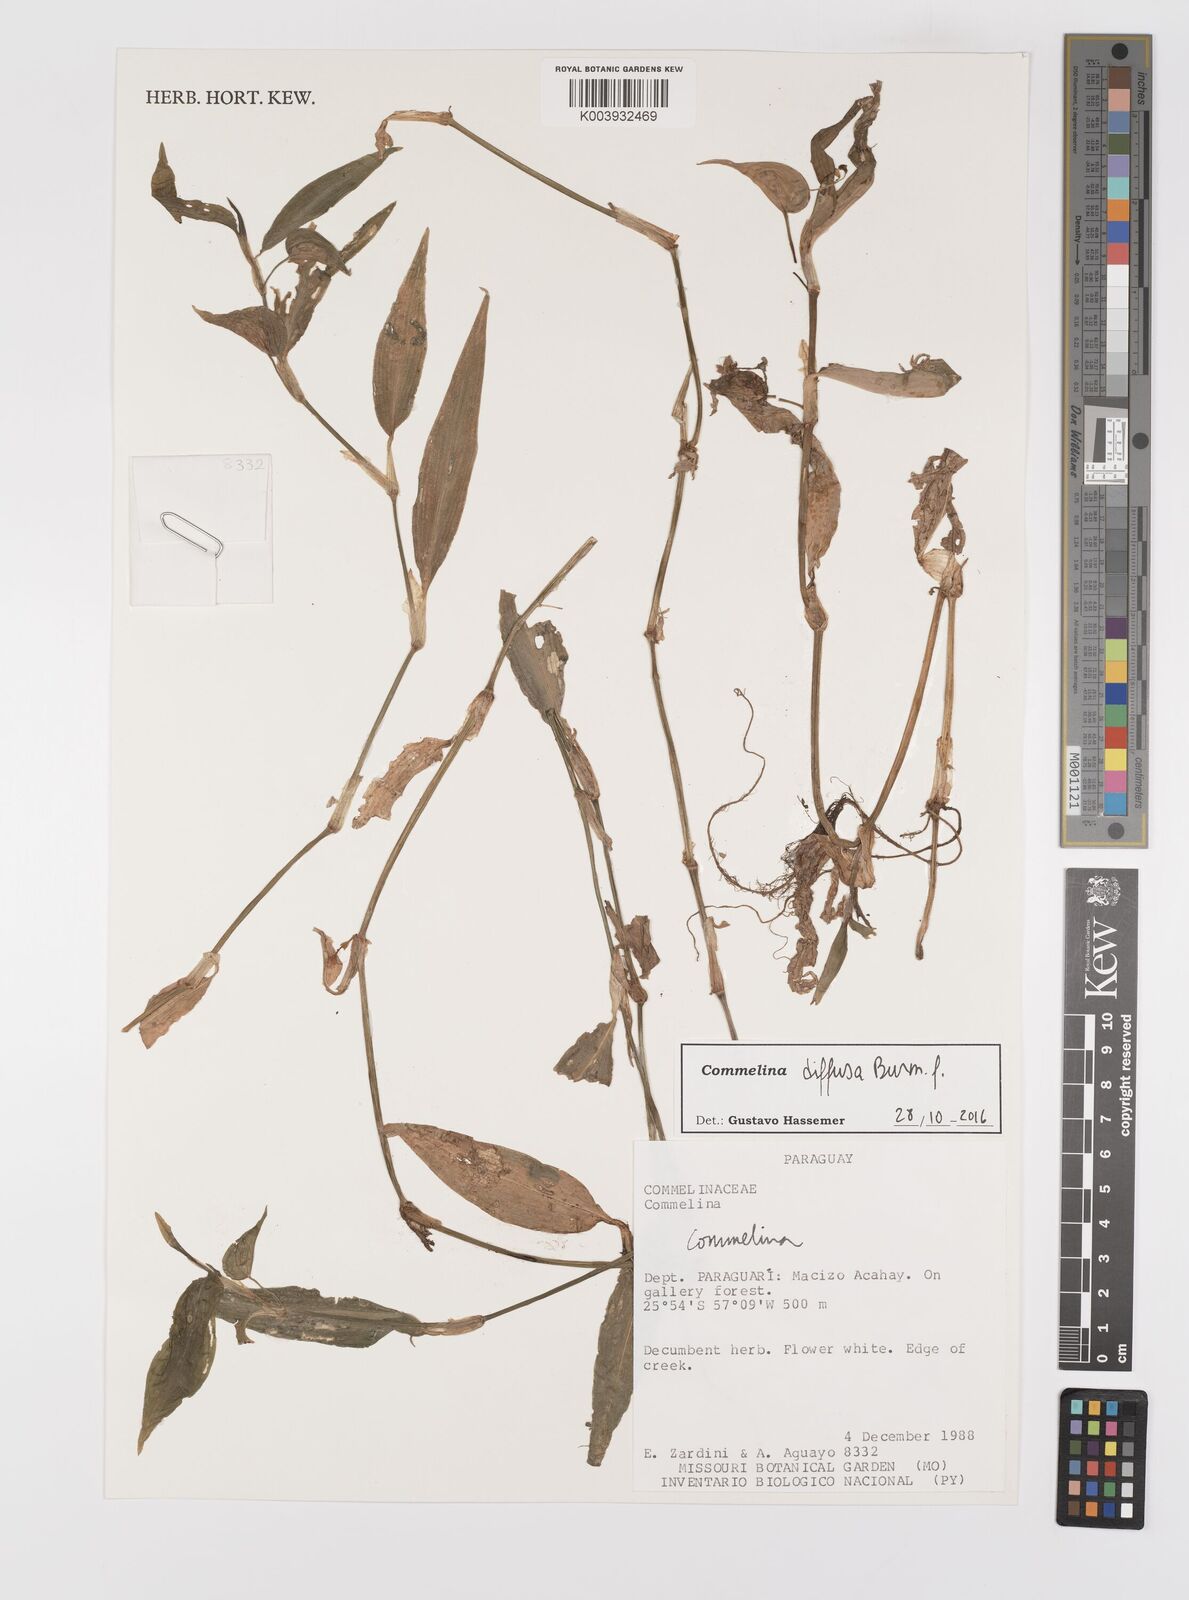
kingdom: Plantae
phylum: Tracheophyta
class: Liliopsida
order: Commelinales
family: Commelinaceae
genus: Commelina
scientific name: Commelina diffusa
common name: Climbing dayflower
